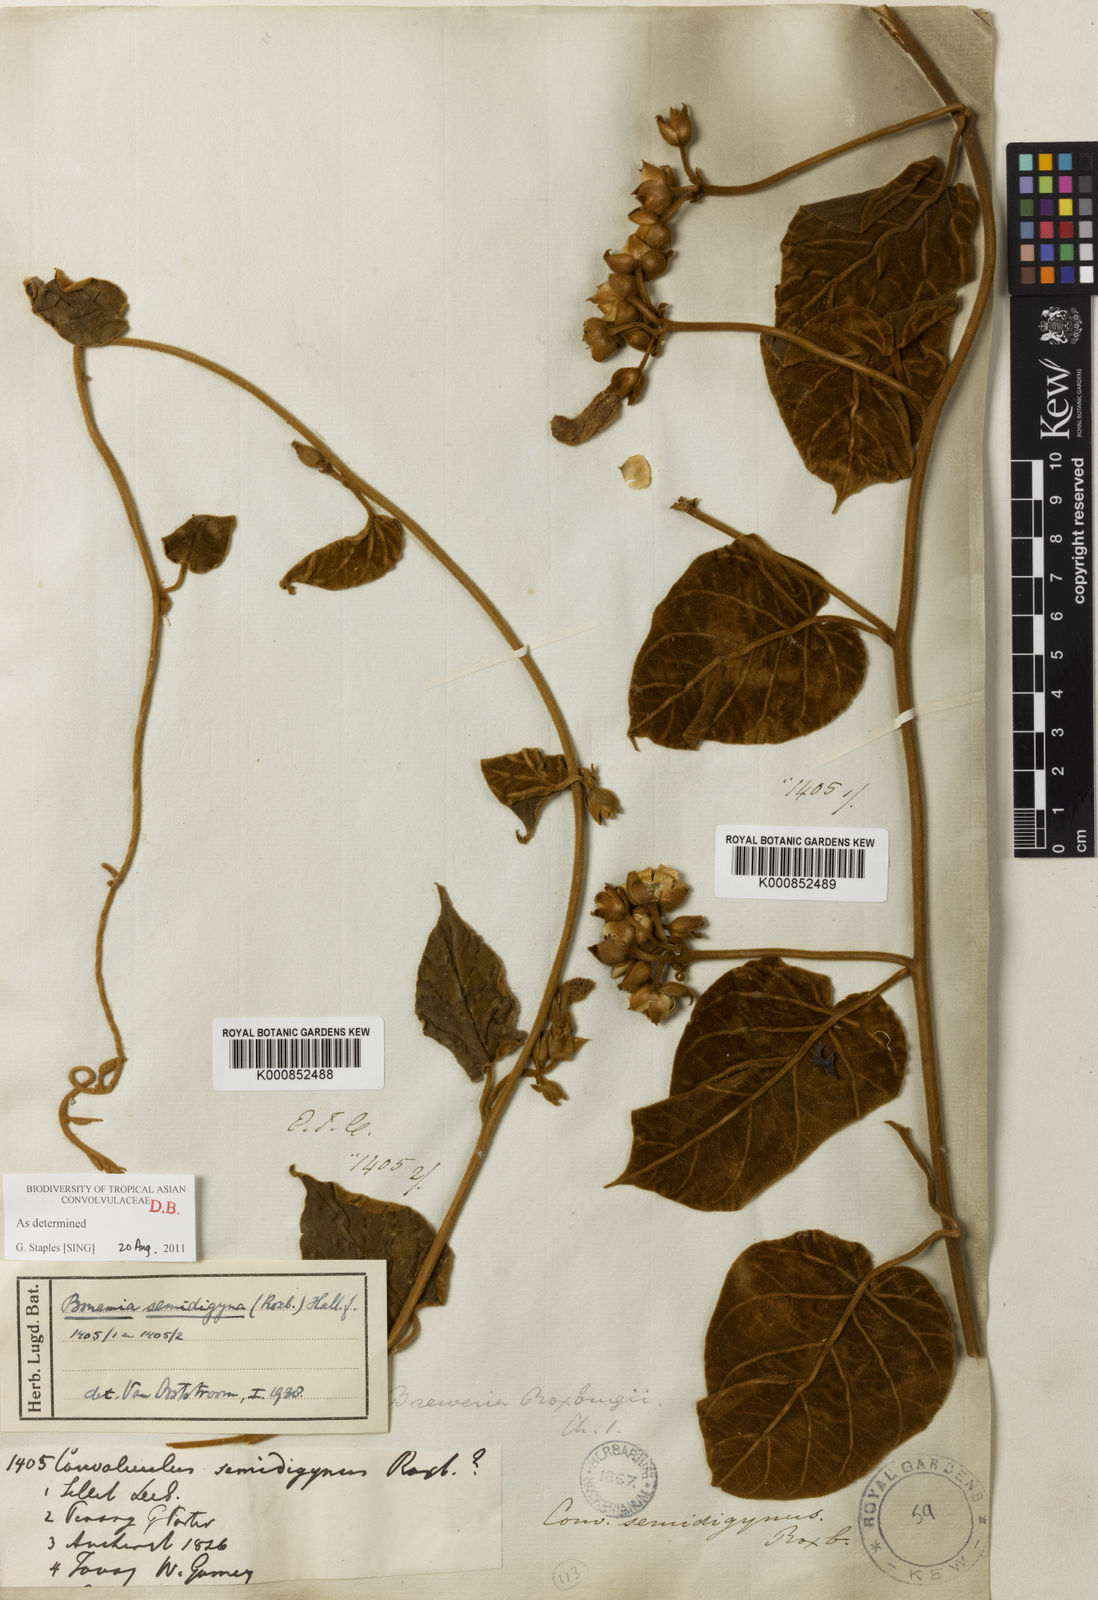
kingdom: Plantae
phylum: Tracheophyta
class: Magnoliopsida
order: Solanales
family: Convolvulaceae
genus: Bonamia
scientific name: Bonamia semidigyna
